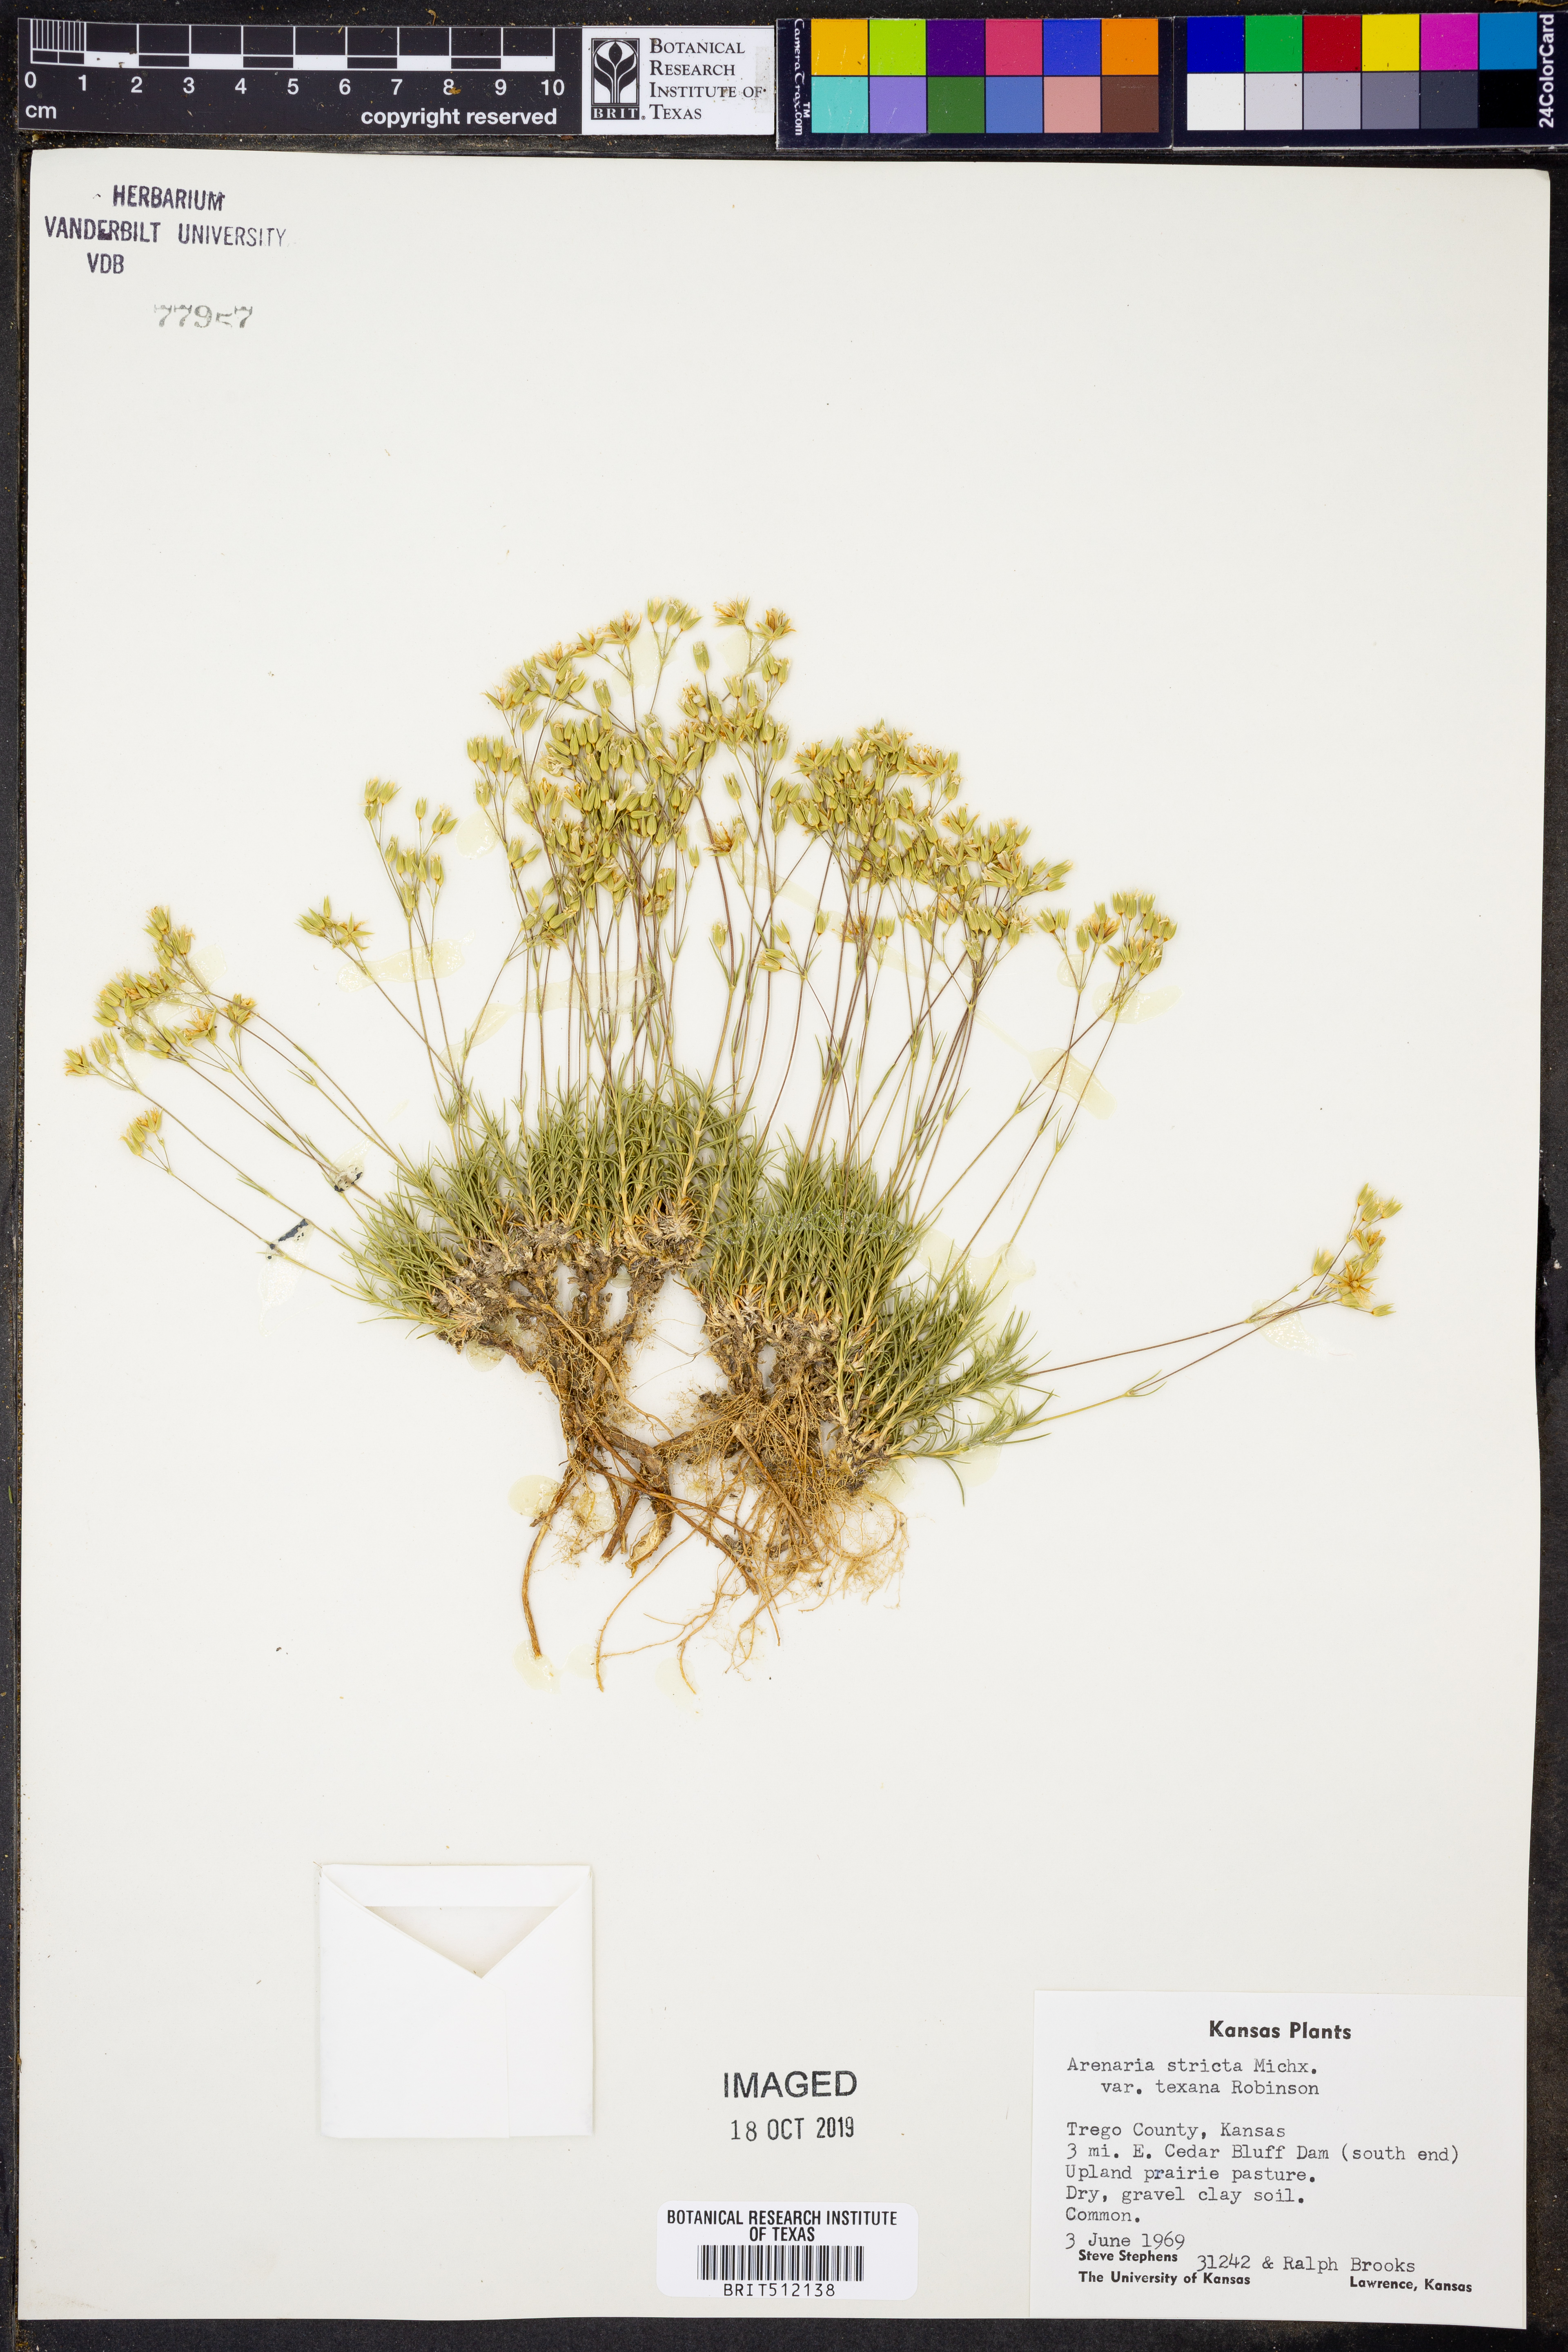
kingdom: Plantae
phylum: Tracheophyta
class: Magnoliopsida
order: Caryophyllales
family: Caryophyllaceae
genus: Sabulina
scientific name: Sabulina michauxii
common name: Michaux's stitchwort
